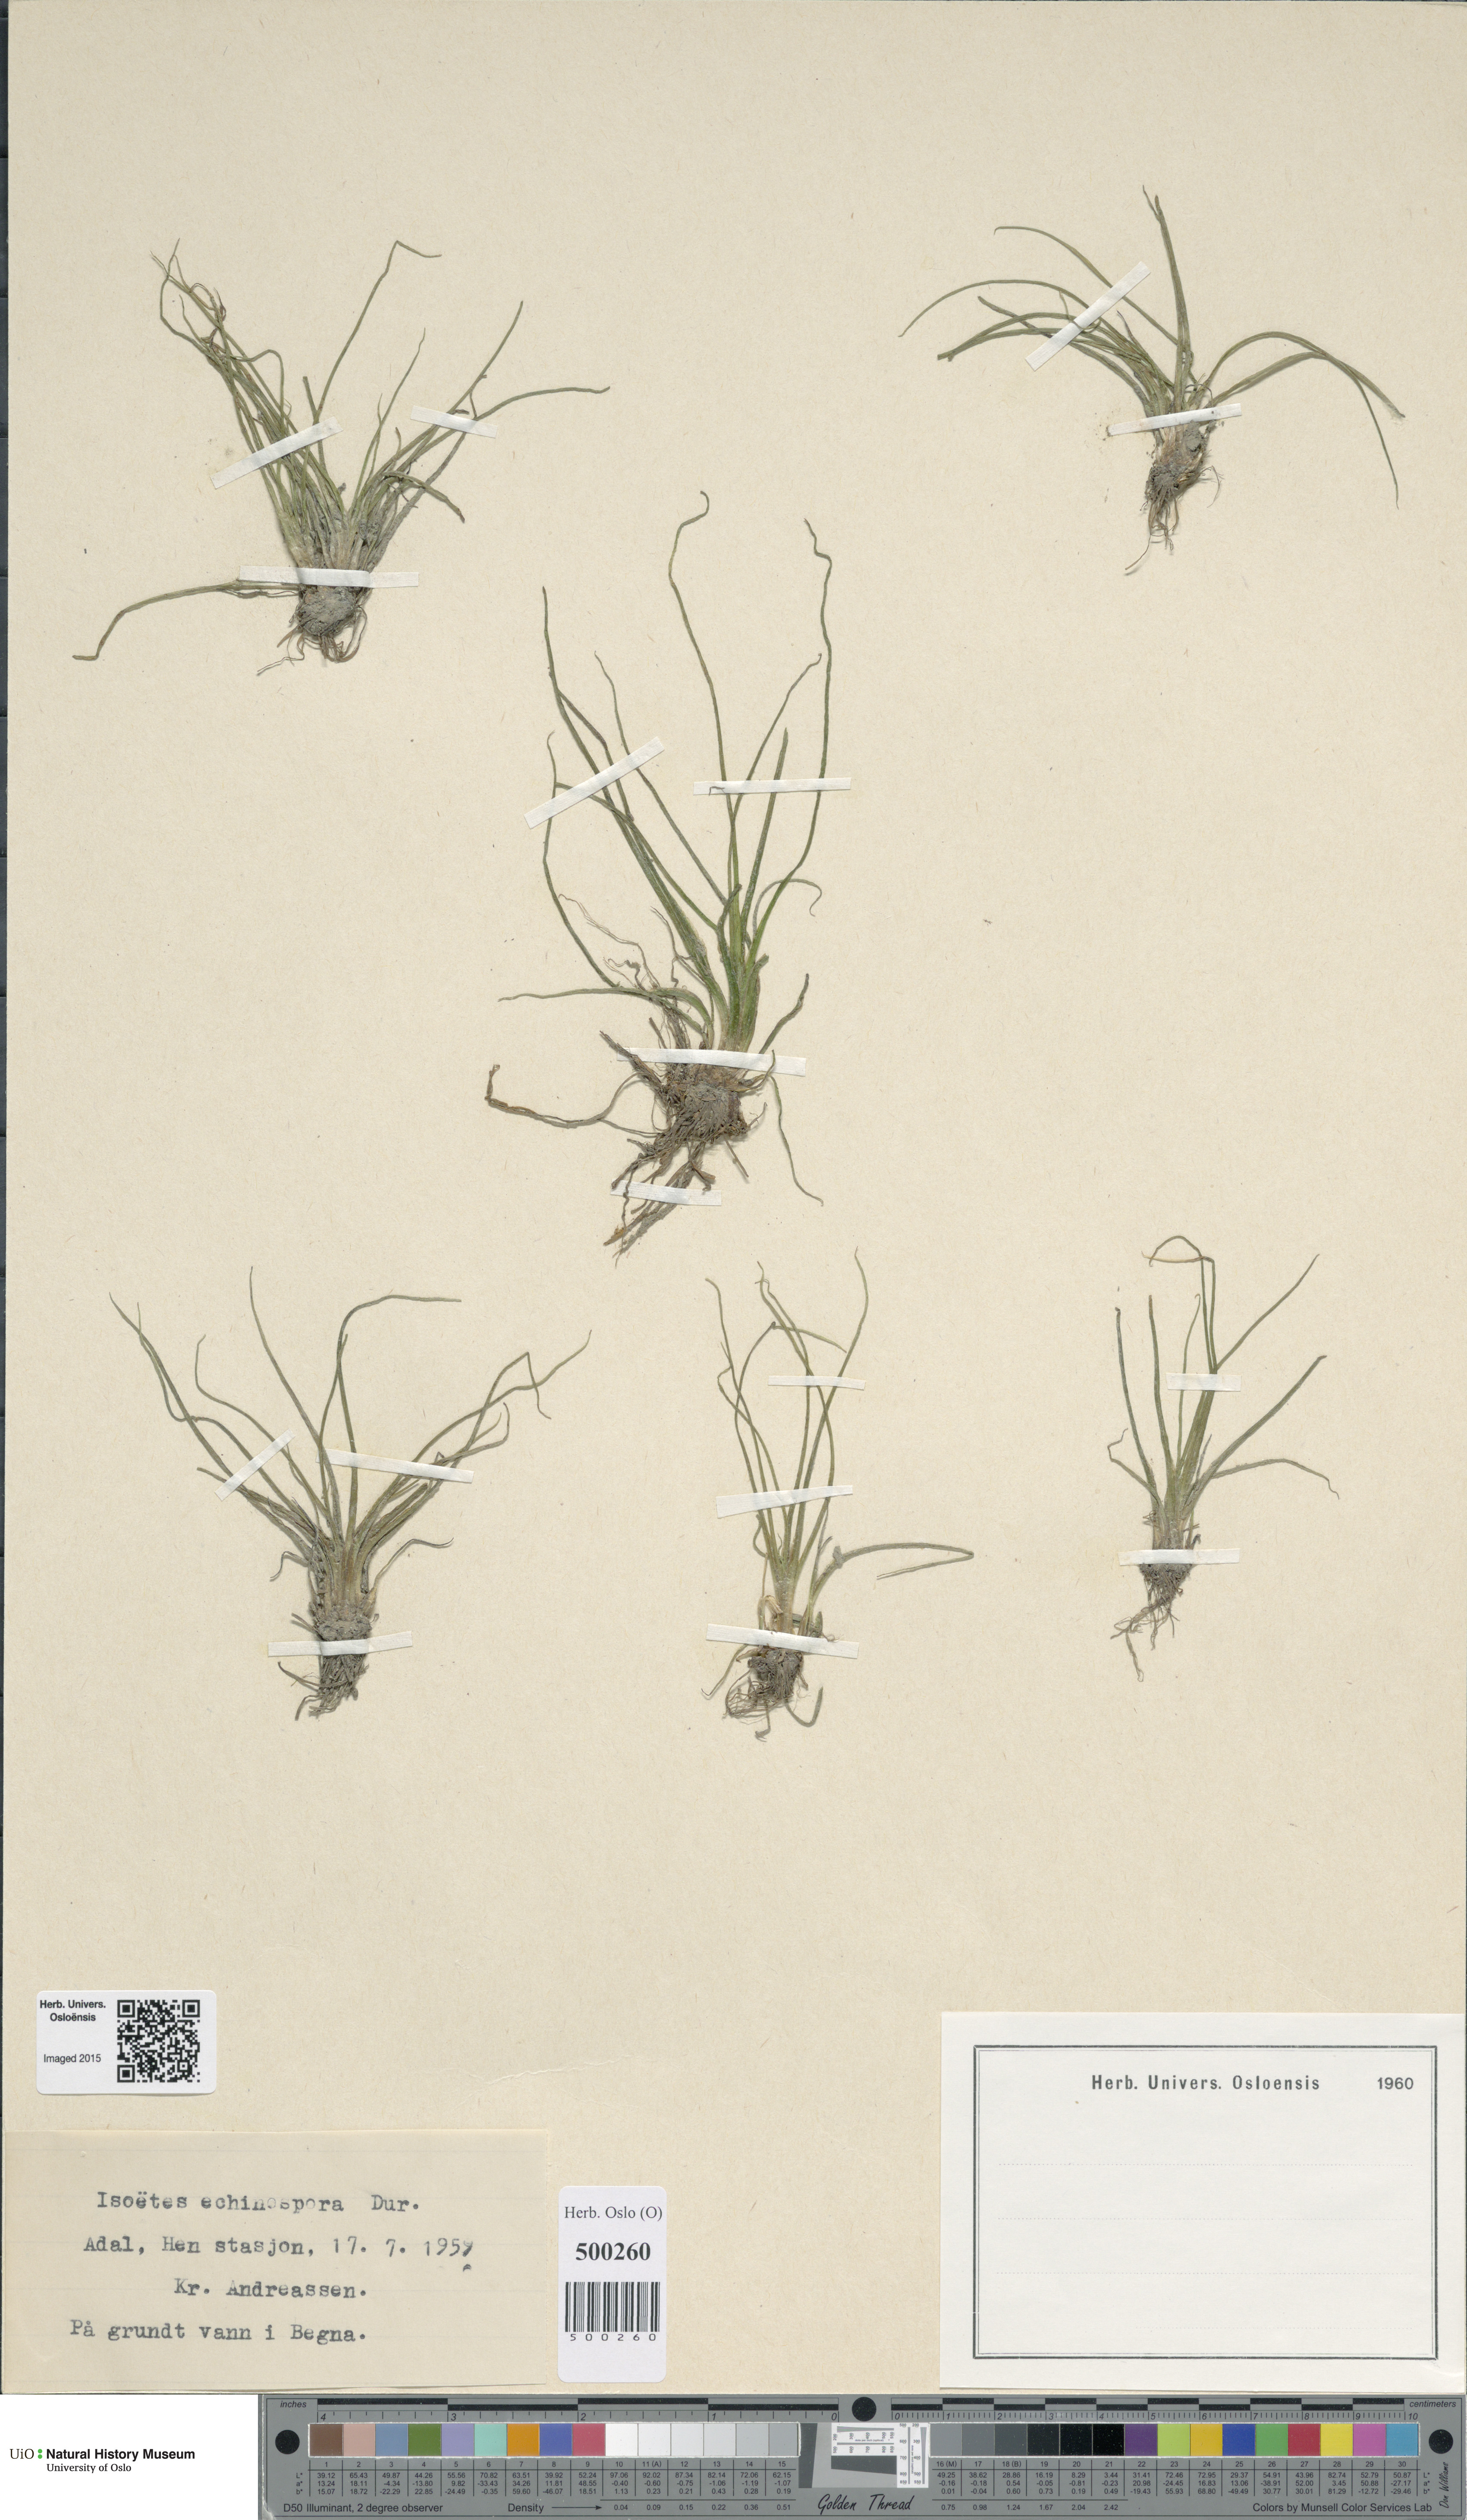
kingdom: Plantae
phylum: Tracheophyta
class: Lycopodiopsida
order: Isoetales
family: Isoetaceae
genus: Isoetes
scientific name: Isoetes echinospora
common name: Spring quillwort
